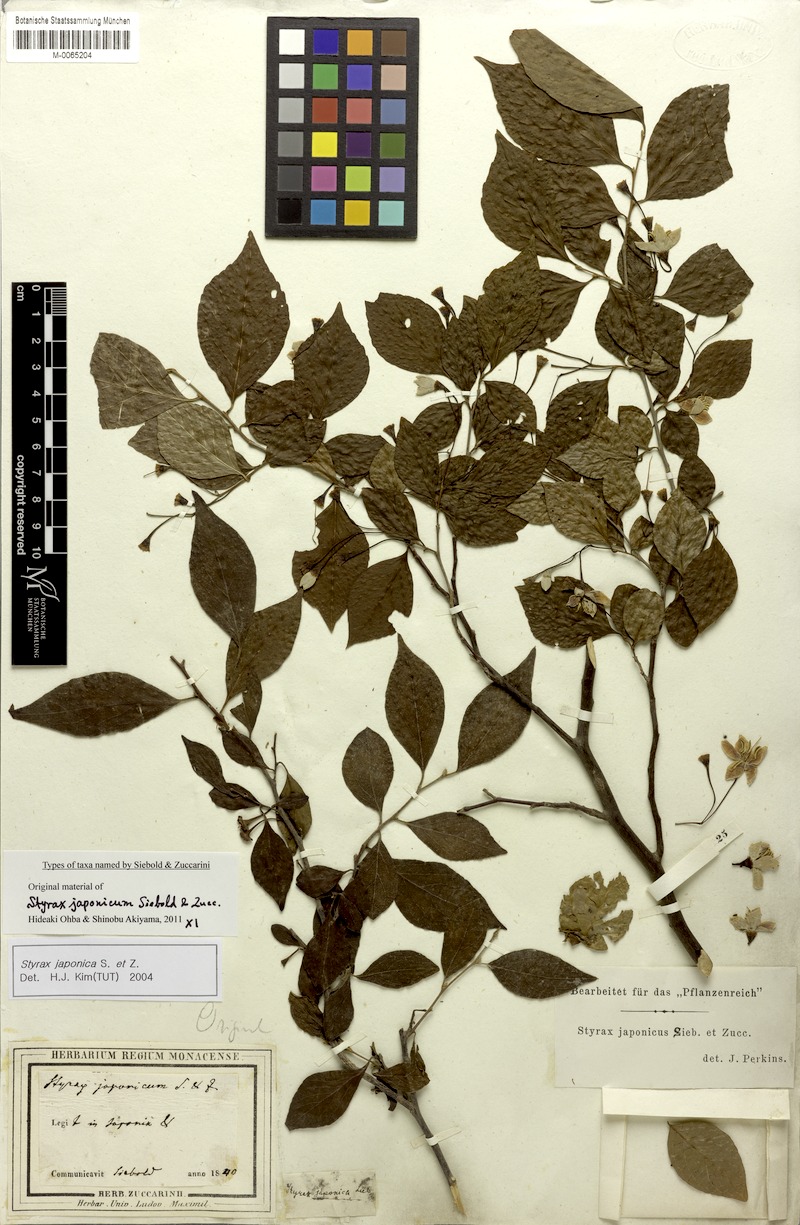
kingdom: Plantae
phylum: Tracheophyta
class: Magnoliopsida
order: Ericales
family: Styracaceae
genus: Styrax
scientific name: Styrax japonicus
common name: Japanese snowbell
